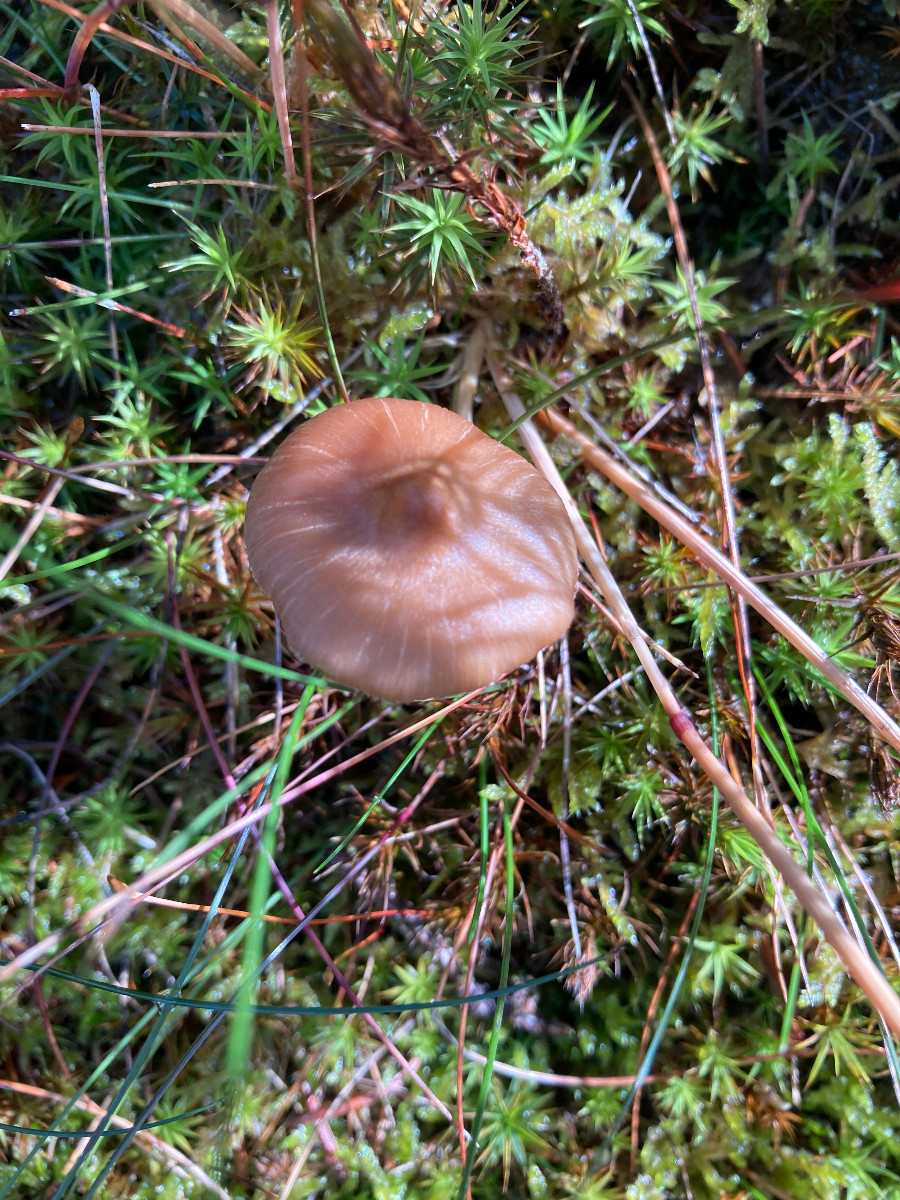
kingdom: Fungi
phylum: Basidiomycota
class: Agaricomycetes
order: Agaricales
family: Inocybaceae
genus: Inocybe
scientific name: Inocybe
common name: trævlhat
